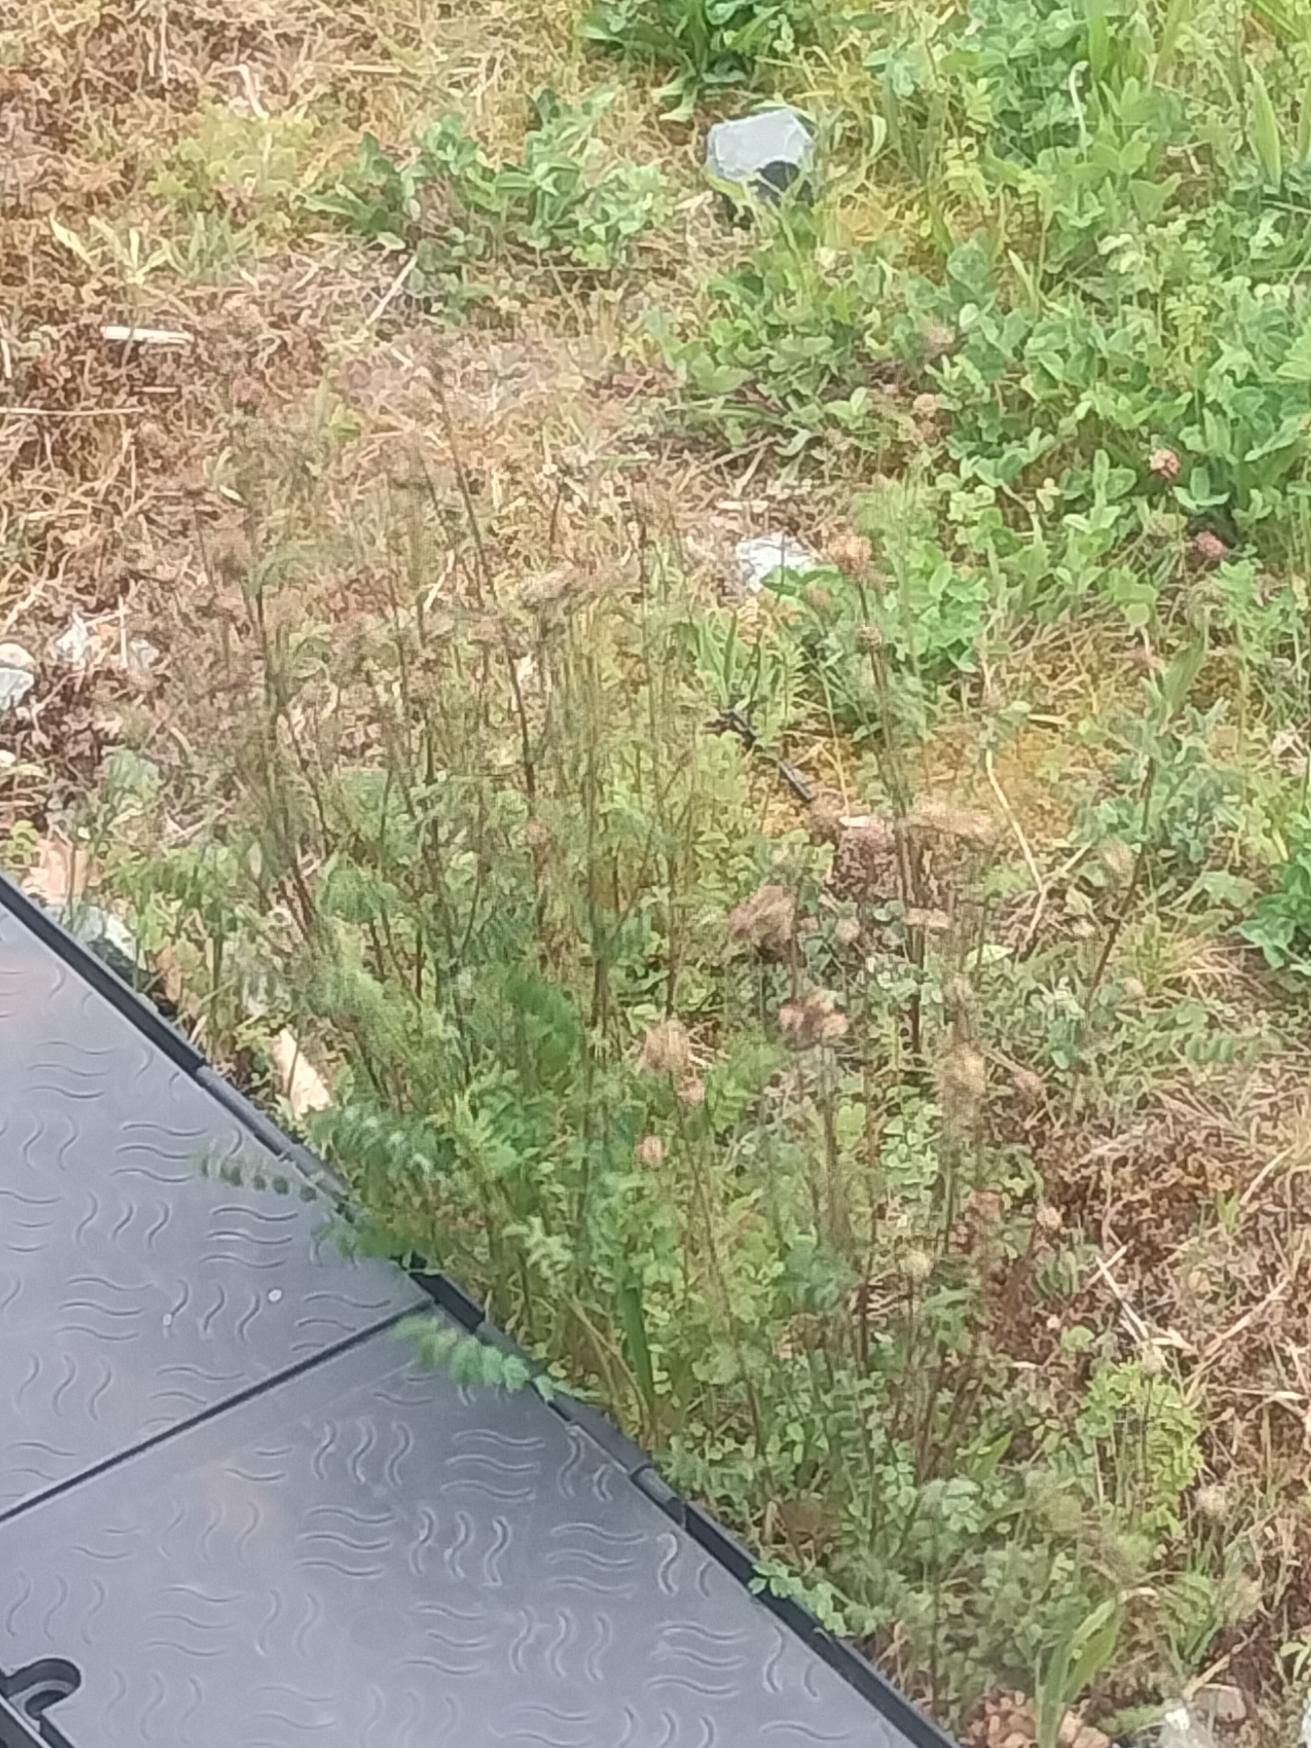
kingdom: Plantae
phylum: Tracheophyta
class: Magnoliopsida
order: Rosales
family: Rosaceae
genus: Poterium
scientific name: Poterium sanguisorba
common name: Bibernelle
